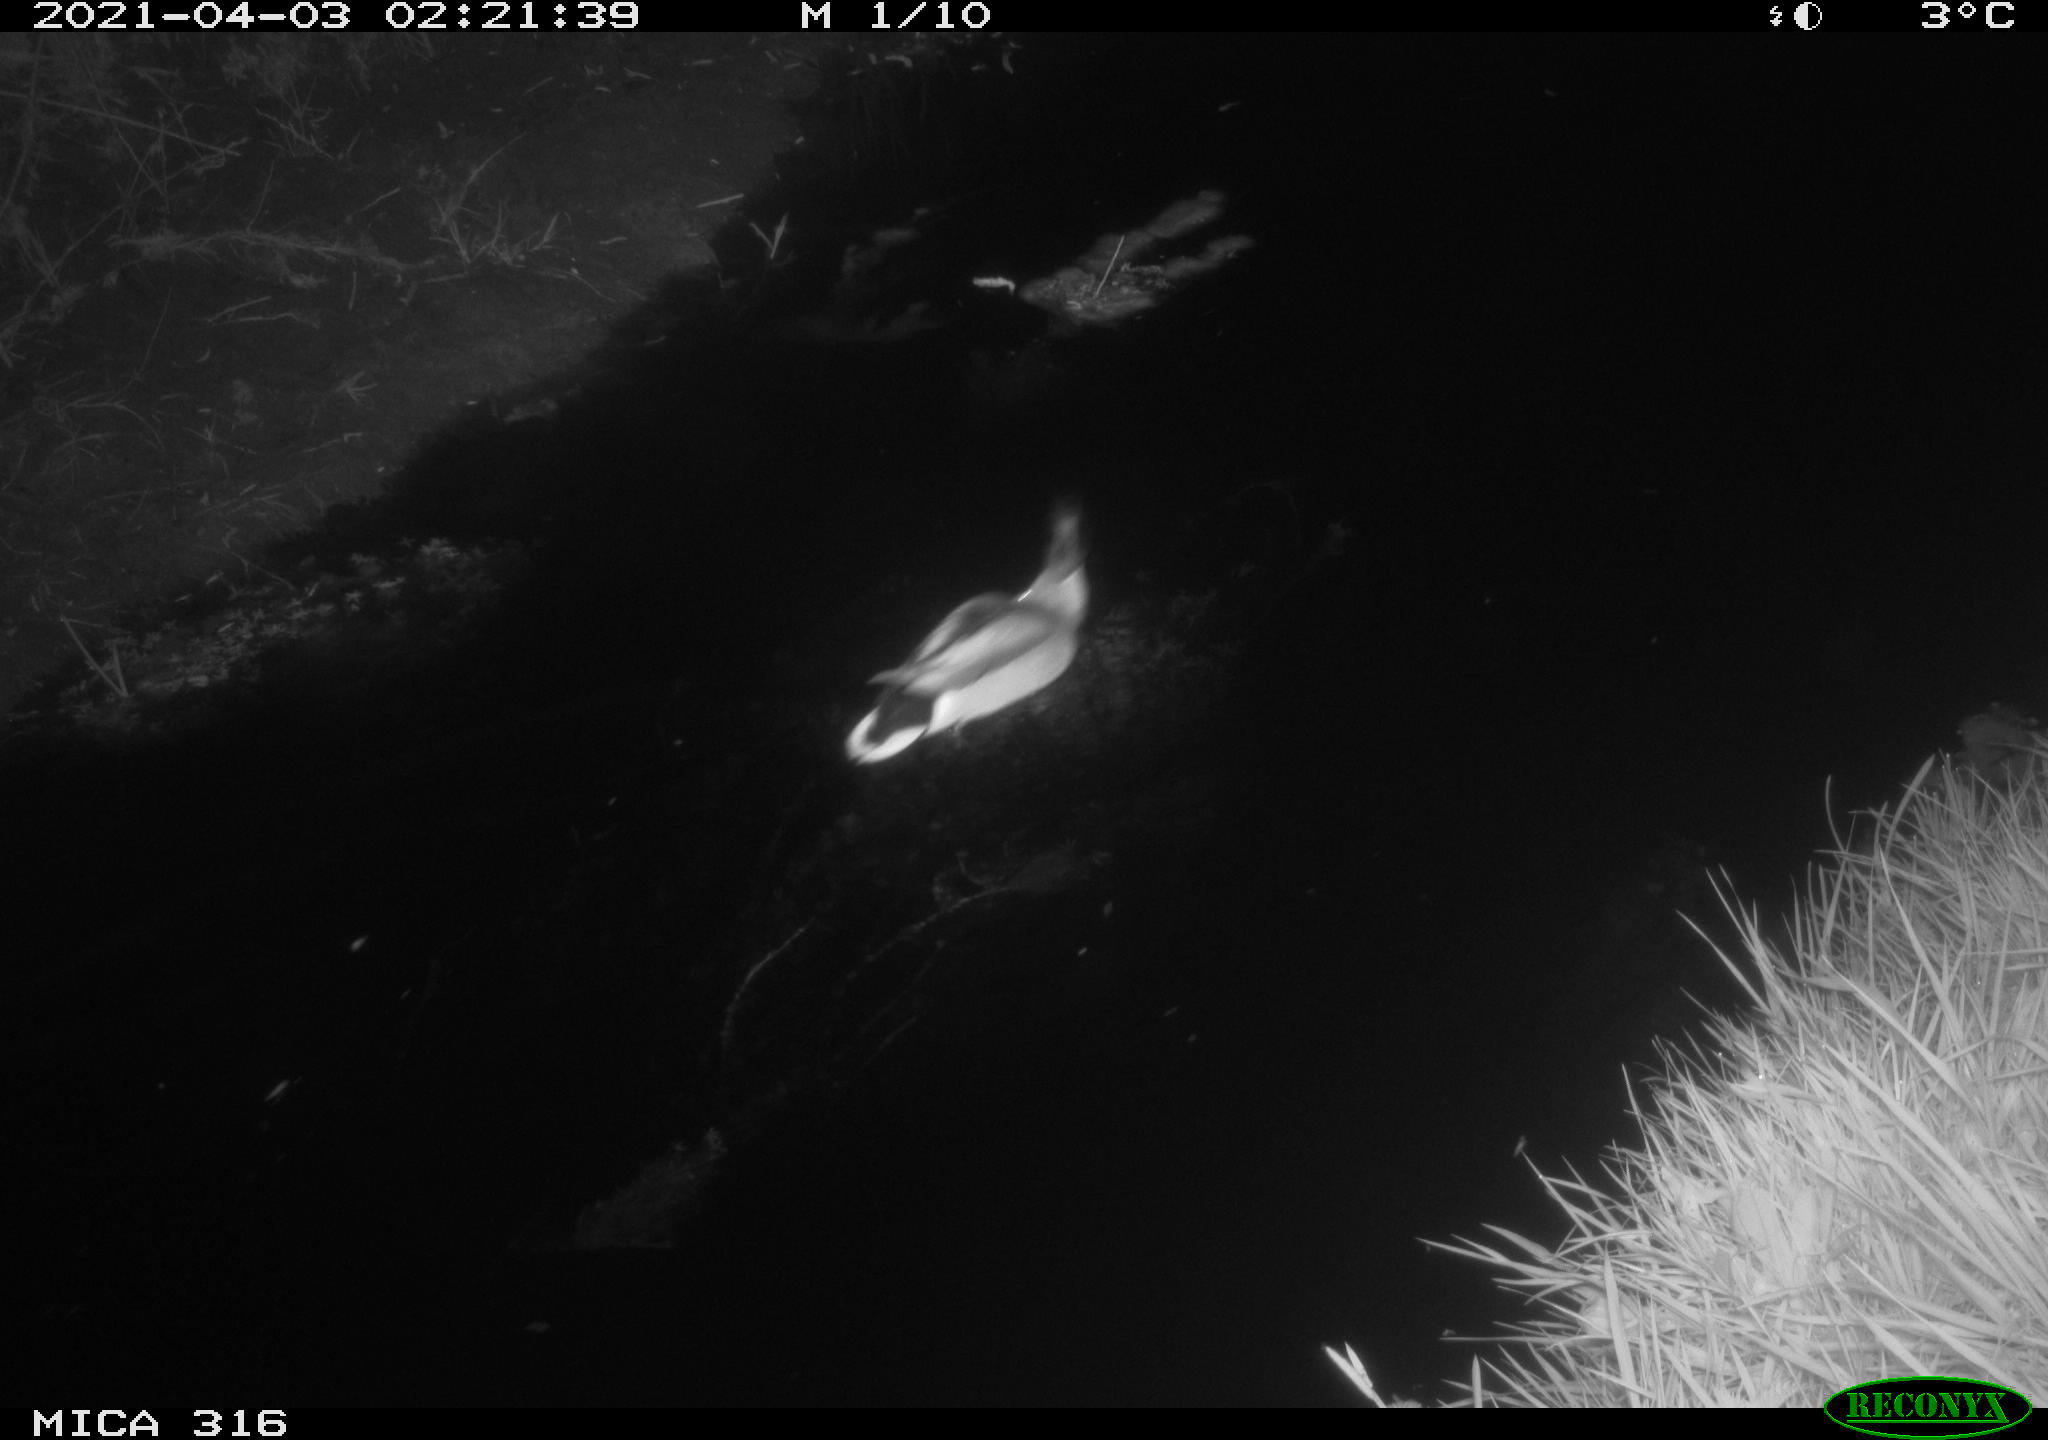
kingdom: Animalia
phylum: Chordata
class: Aves
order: Anseriformes
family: Anatidae
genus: Anas
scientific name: Anas platyrhynchos
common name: Mallard
